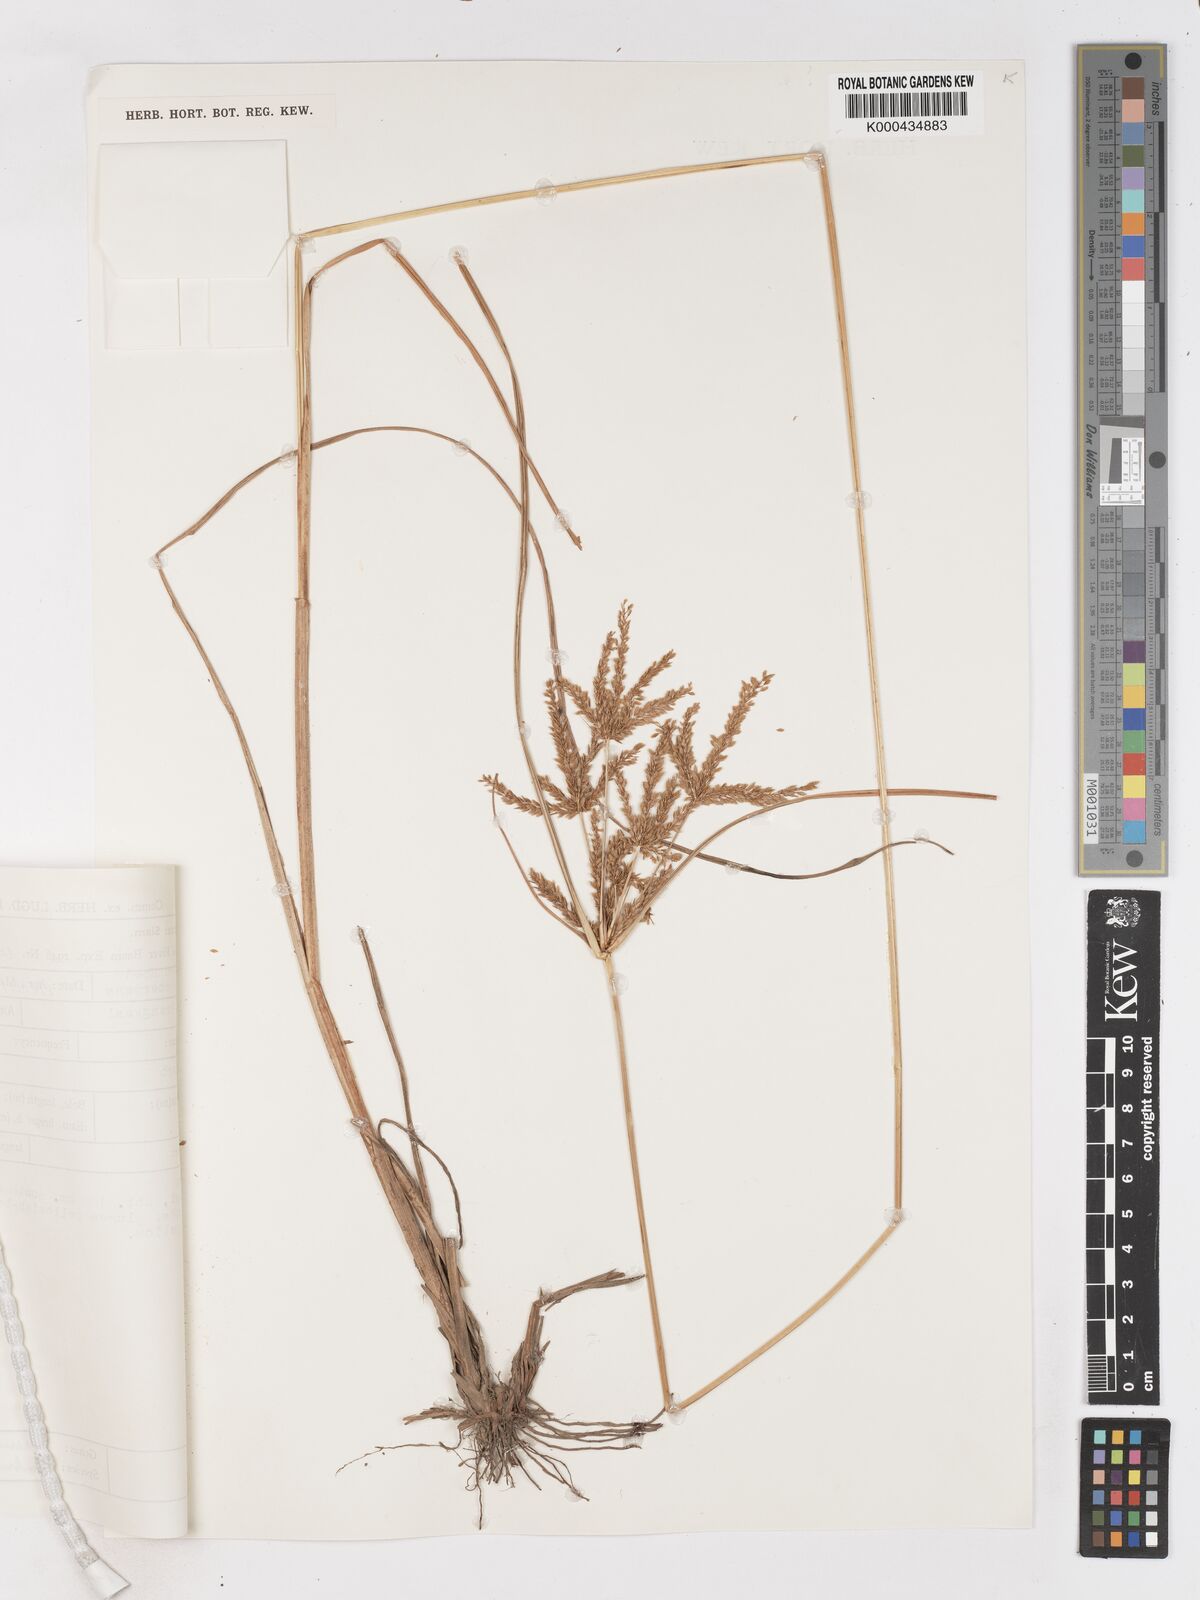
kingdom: Plantae
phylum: Tracheophyta
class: Liliopsida
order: Poales
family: Cyperaceae
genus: Cyperus
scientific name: Cyperus imbricatus
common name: Shingle flatsedge
